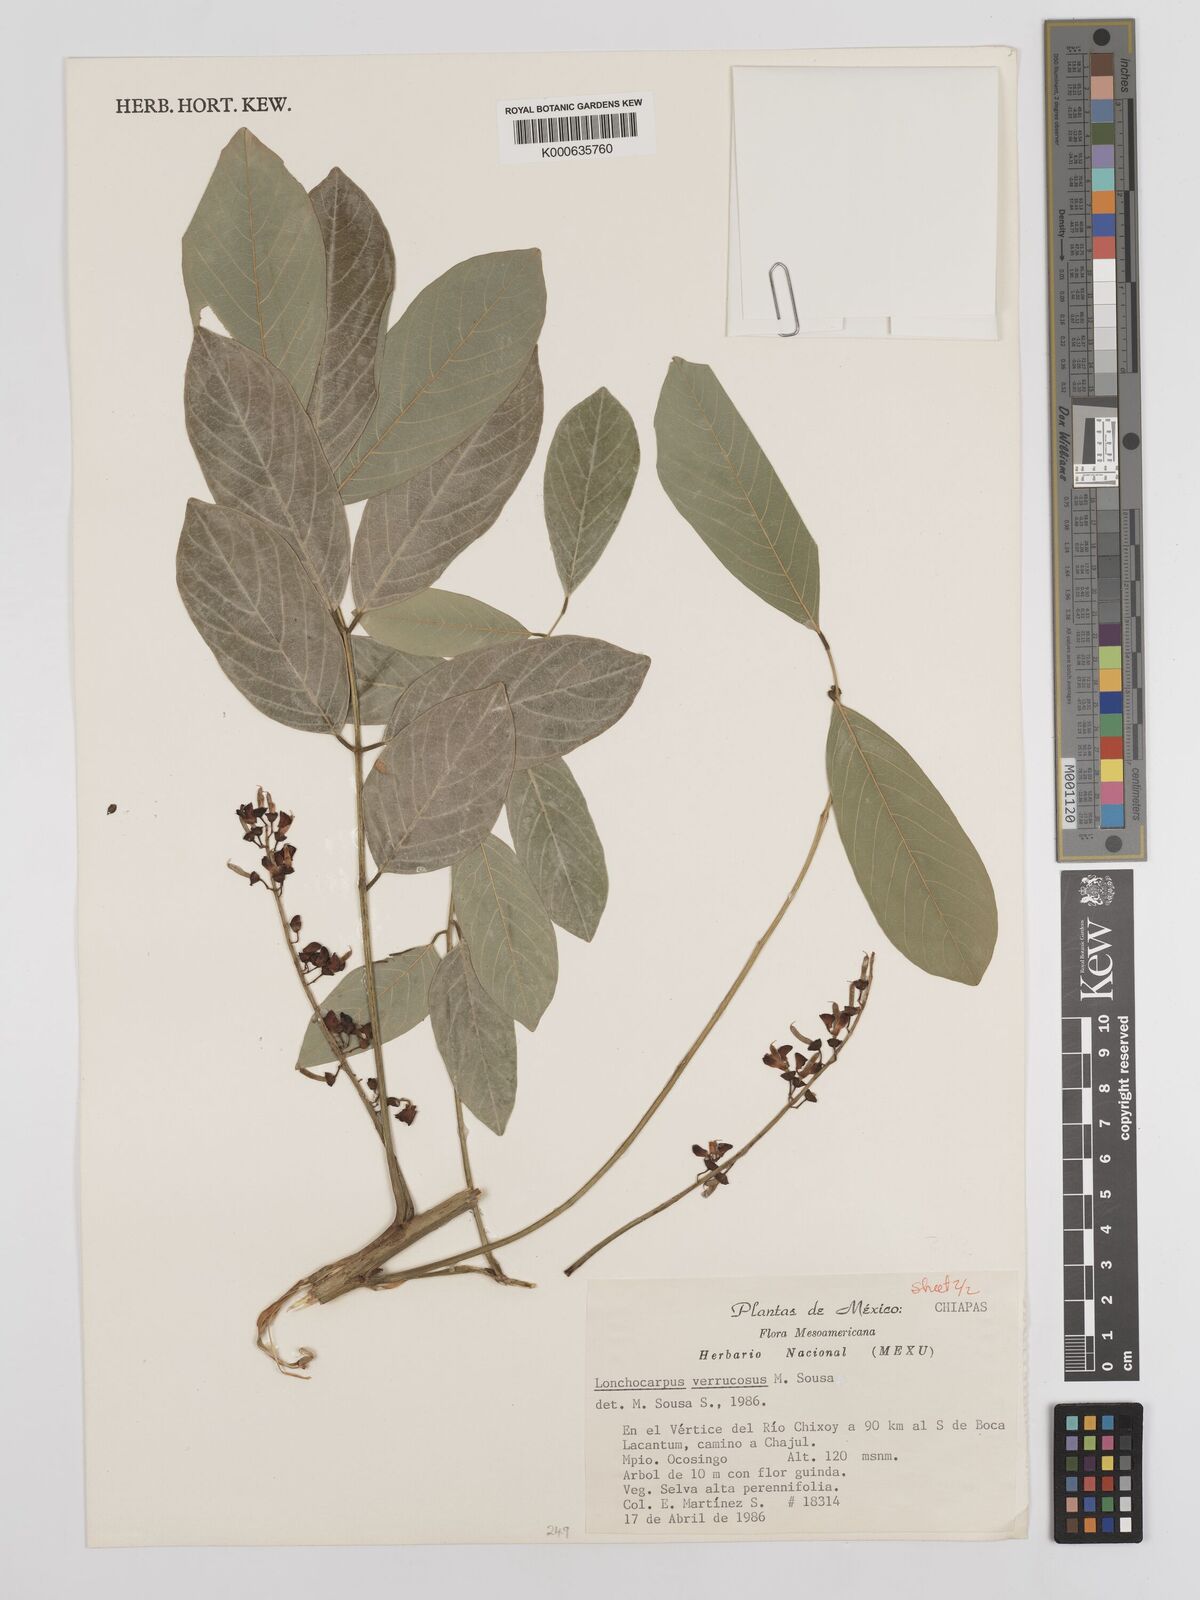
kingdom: Plantae
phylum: Tracheophyta
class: Magnoliopsida
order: Fabales
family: Fabaceae
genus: Lonchocarpus
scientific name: Lonchocarpus verrucosus
